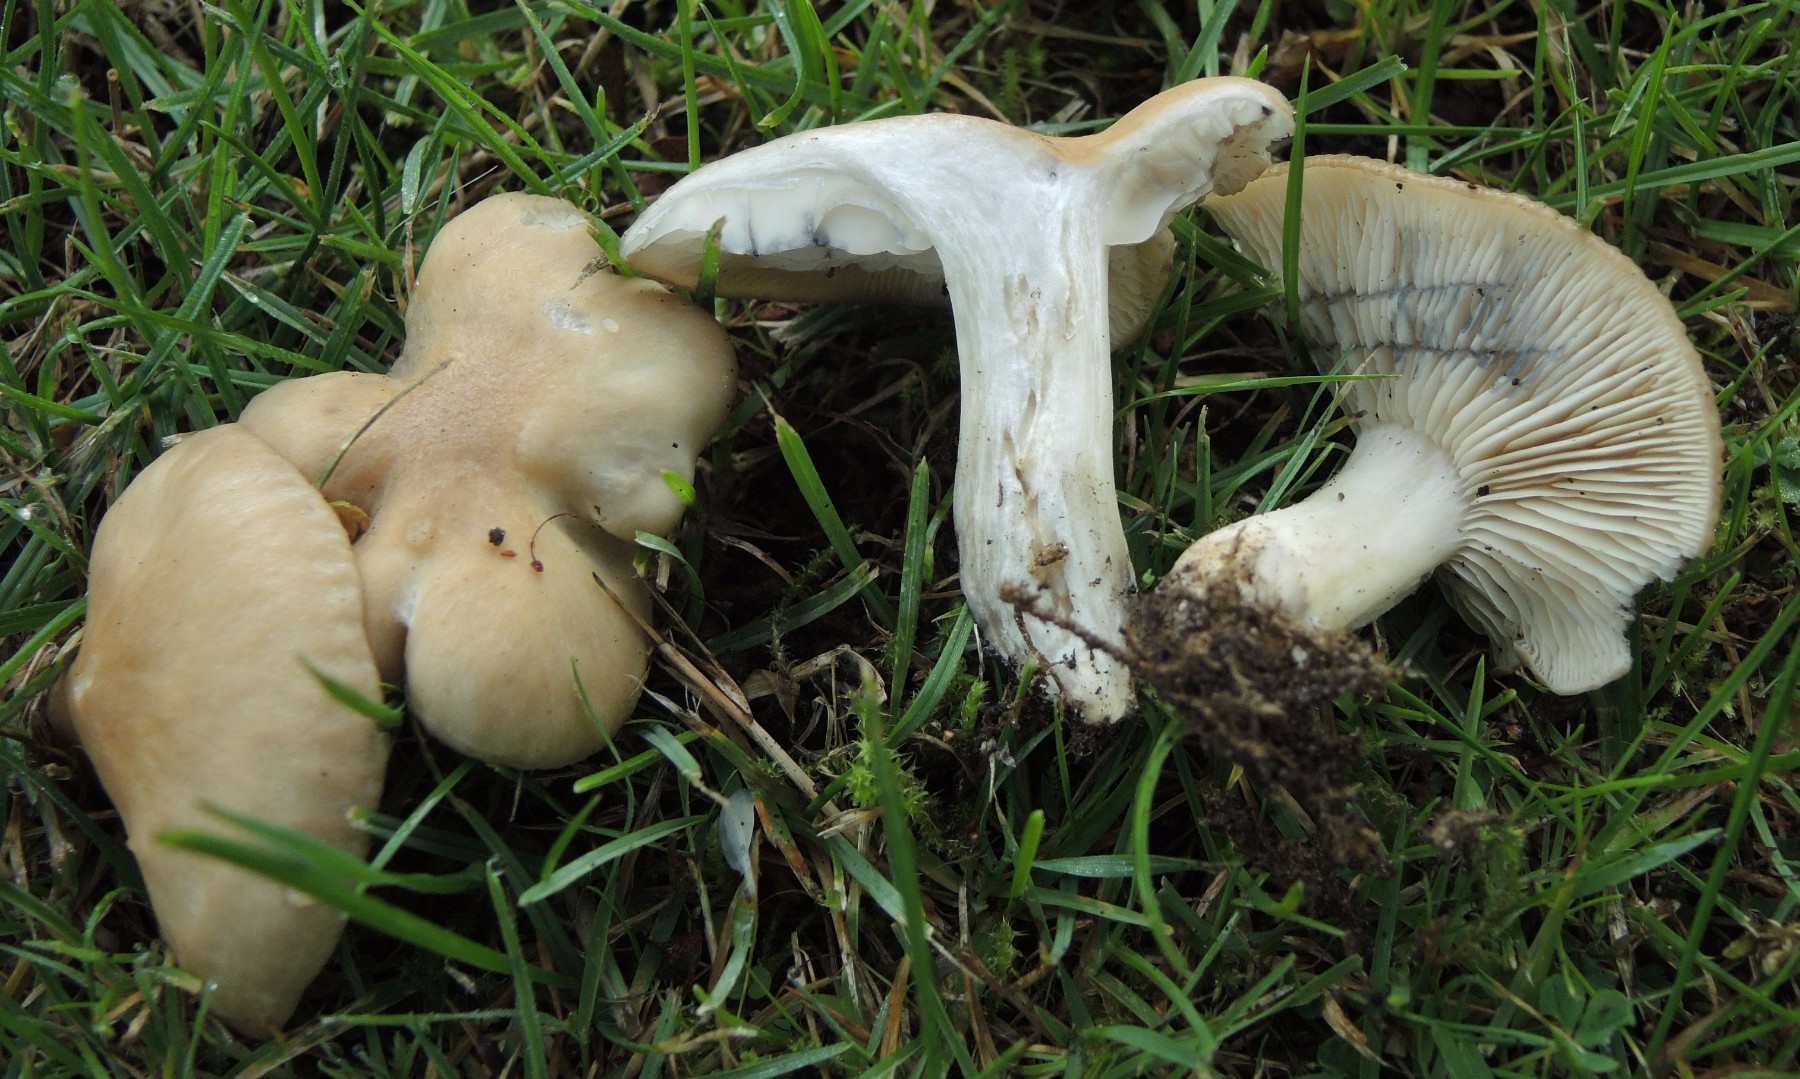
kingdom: Fungi
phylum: Basidiomycota
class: Agaricomycetes
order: Agaricales
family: Lyophyllaceae
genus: Lyophyllum
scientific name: Lyophyllum paelochroum
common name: blånende gråblad
